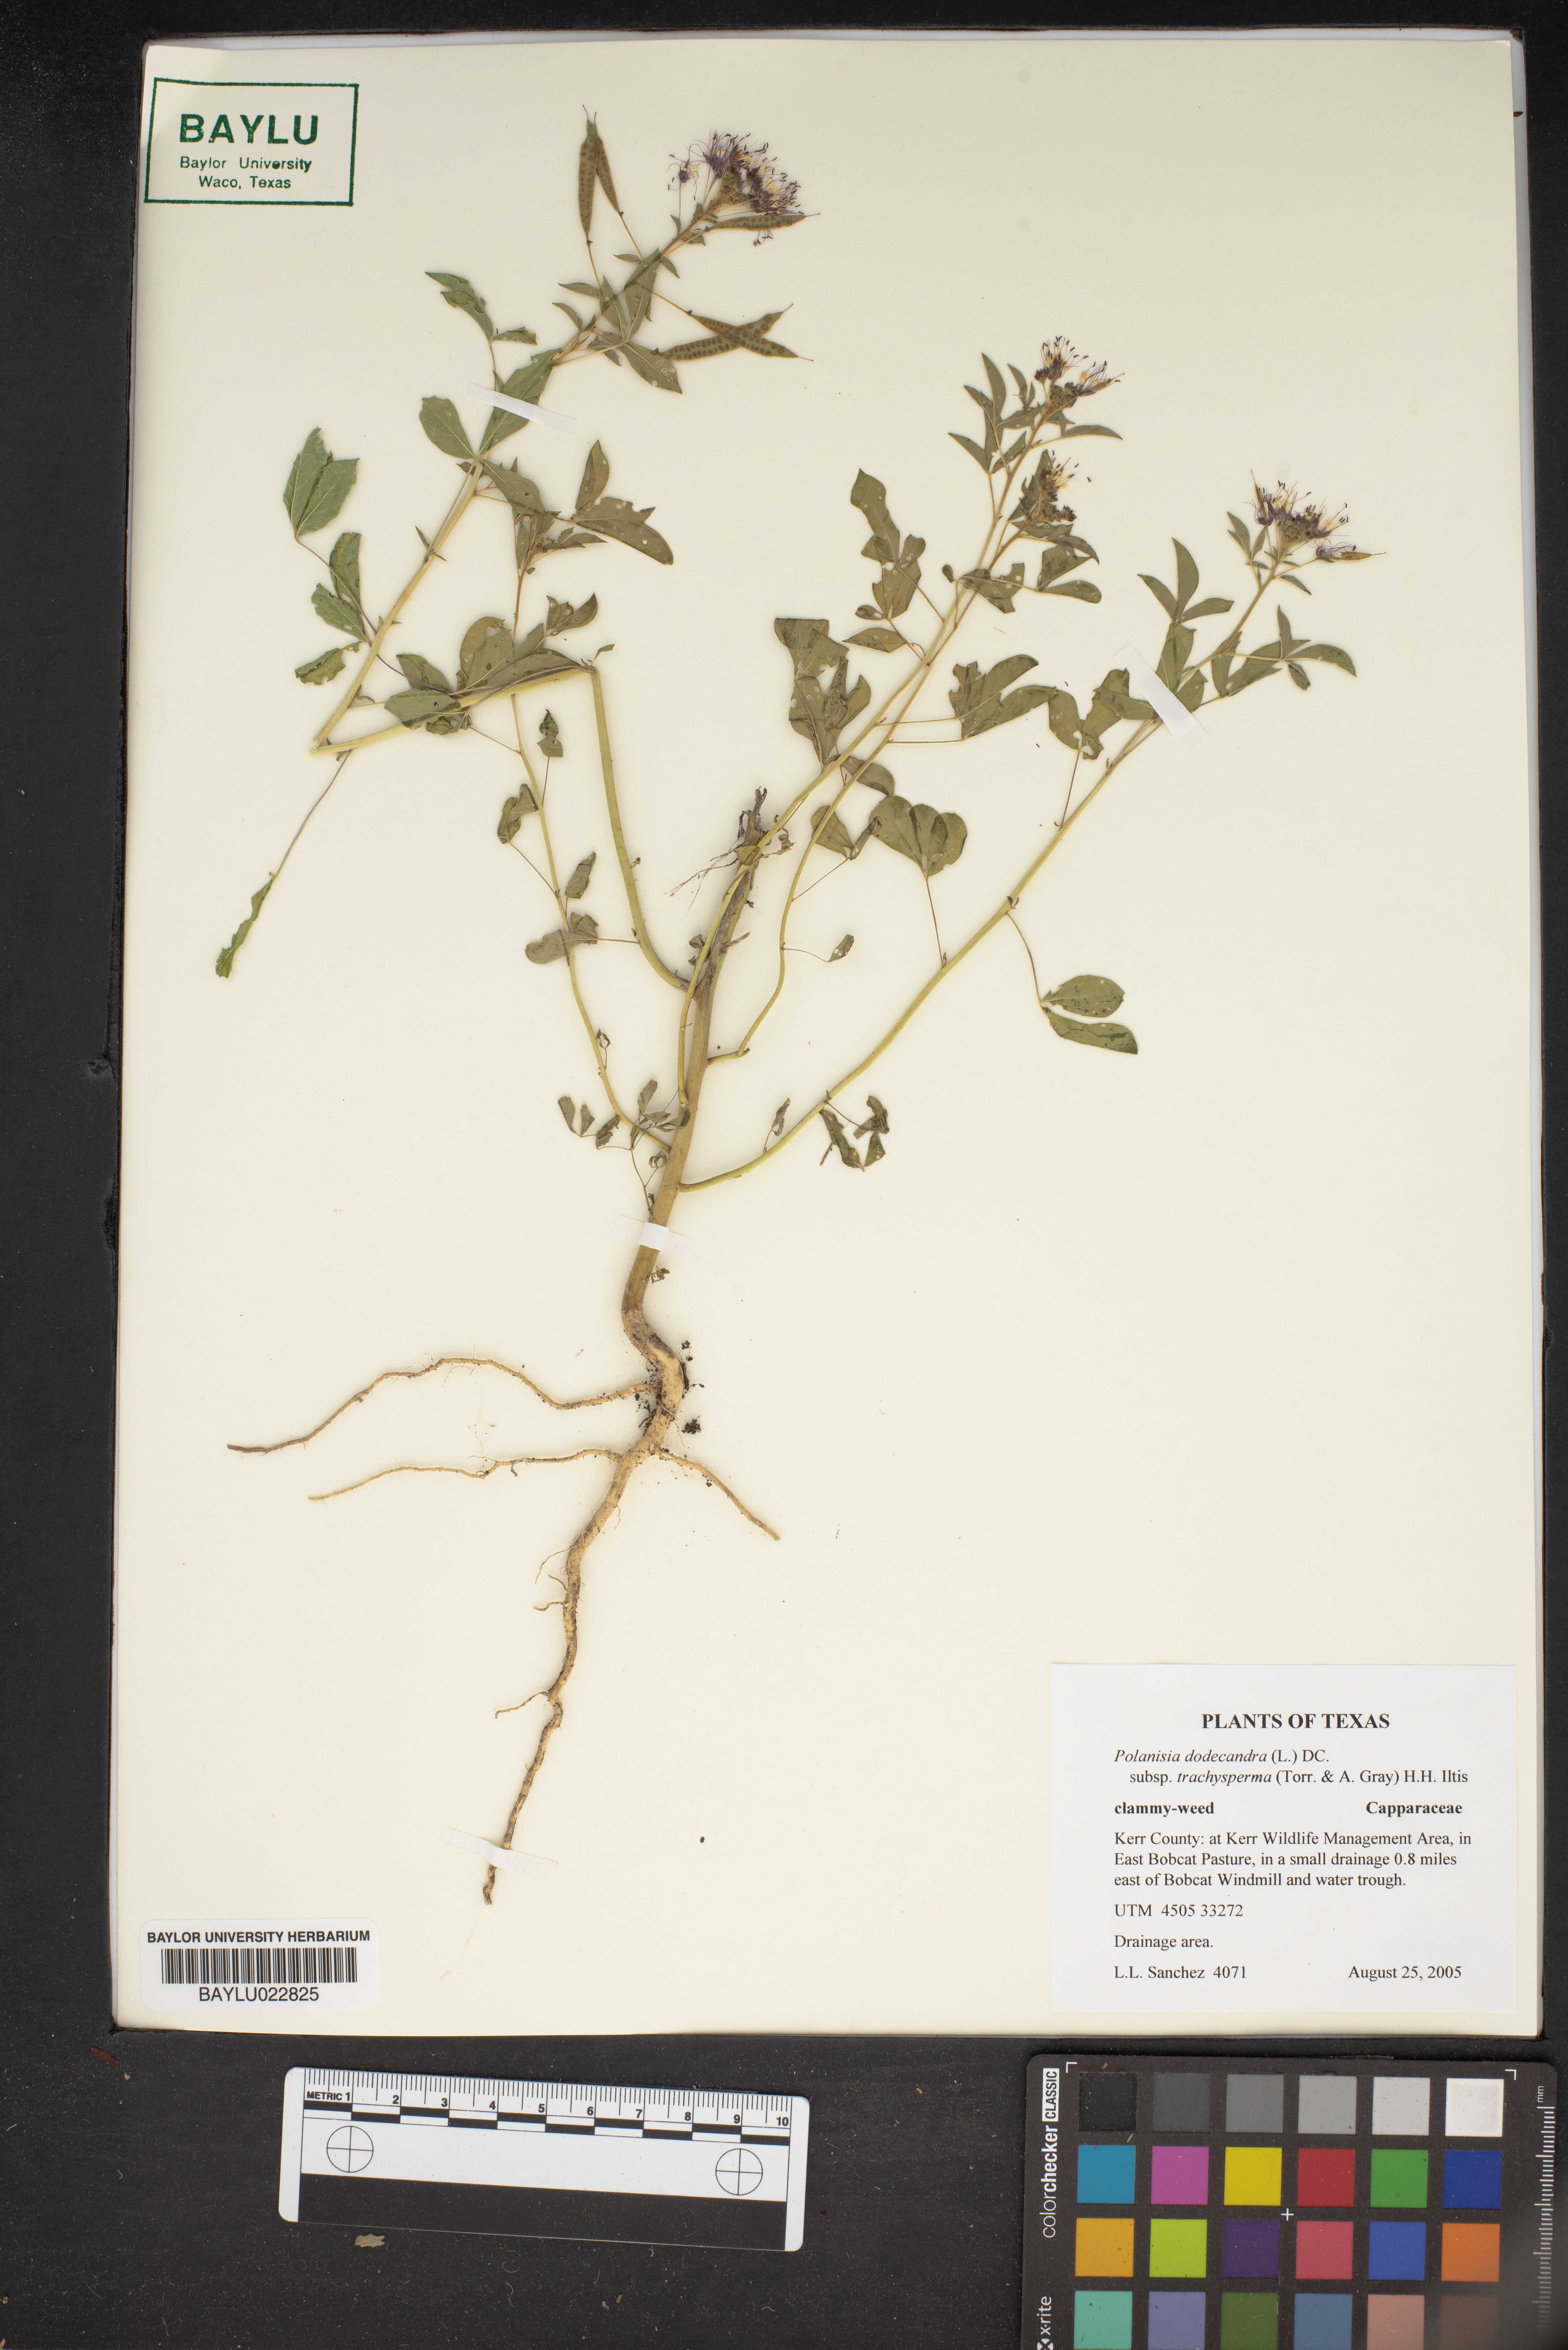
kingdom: Plantae
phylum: Tracheophyta
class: Magnoliopsida
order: Brassicales
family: Cleomaceae
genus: Polanisia
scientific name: Polanisia trachysperma
